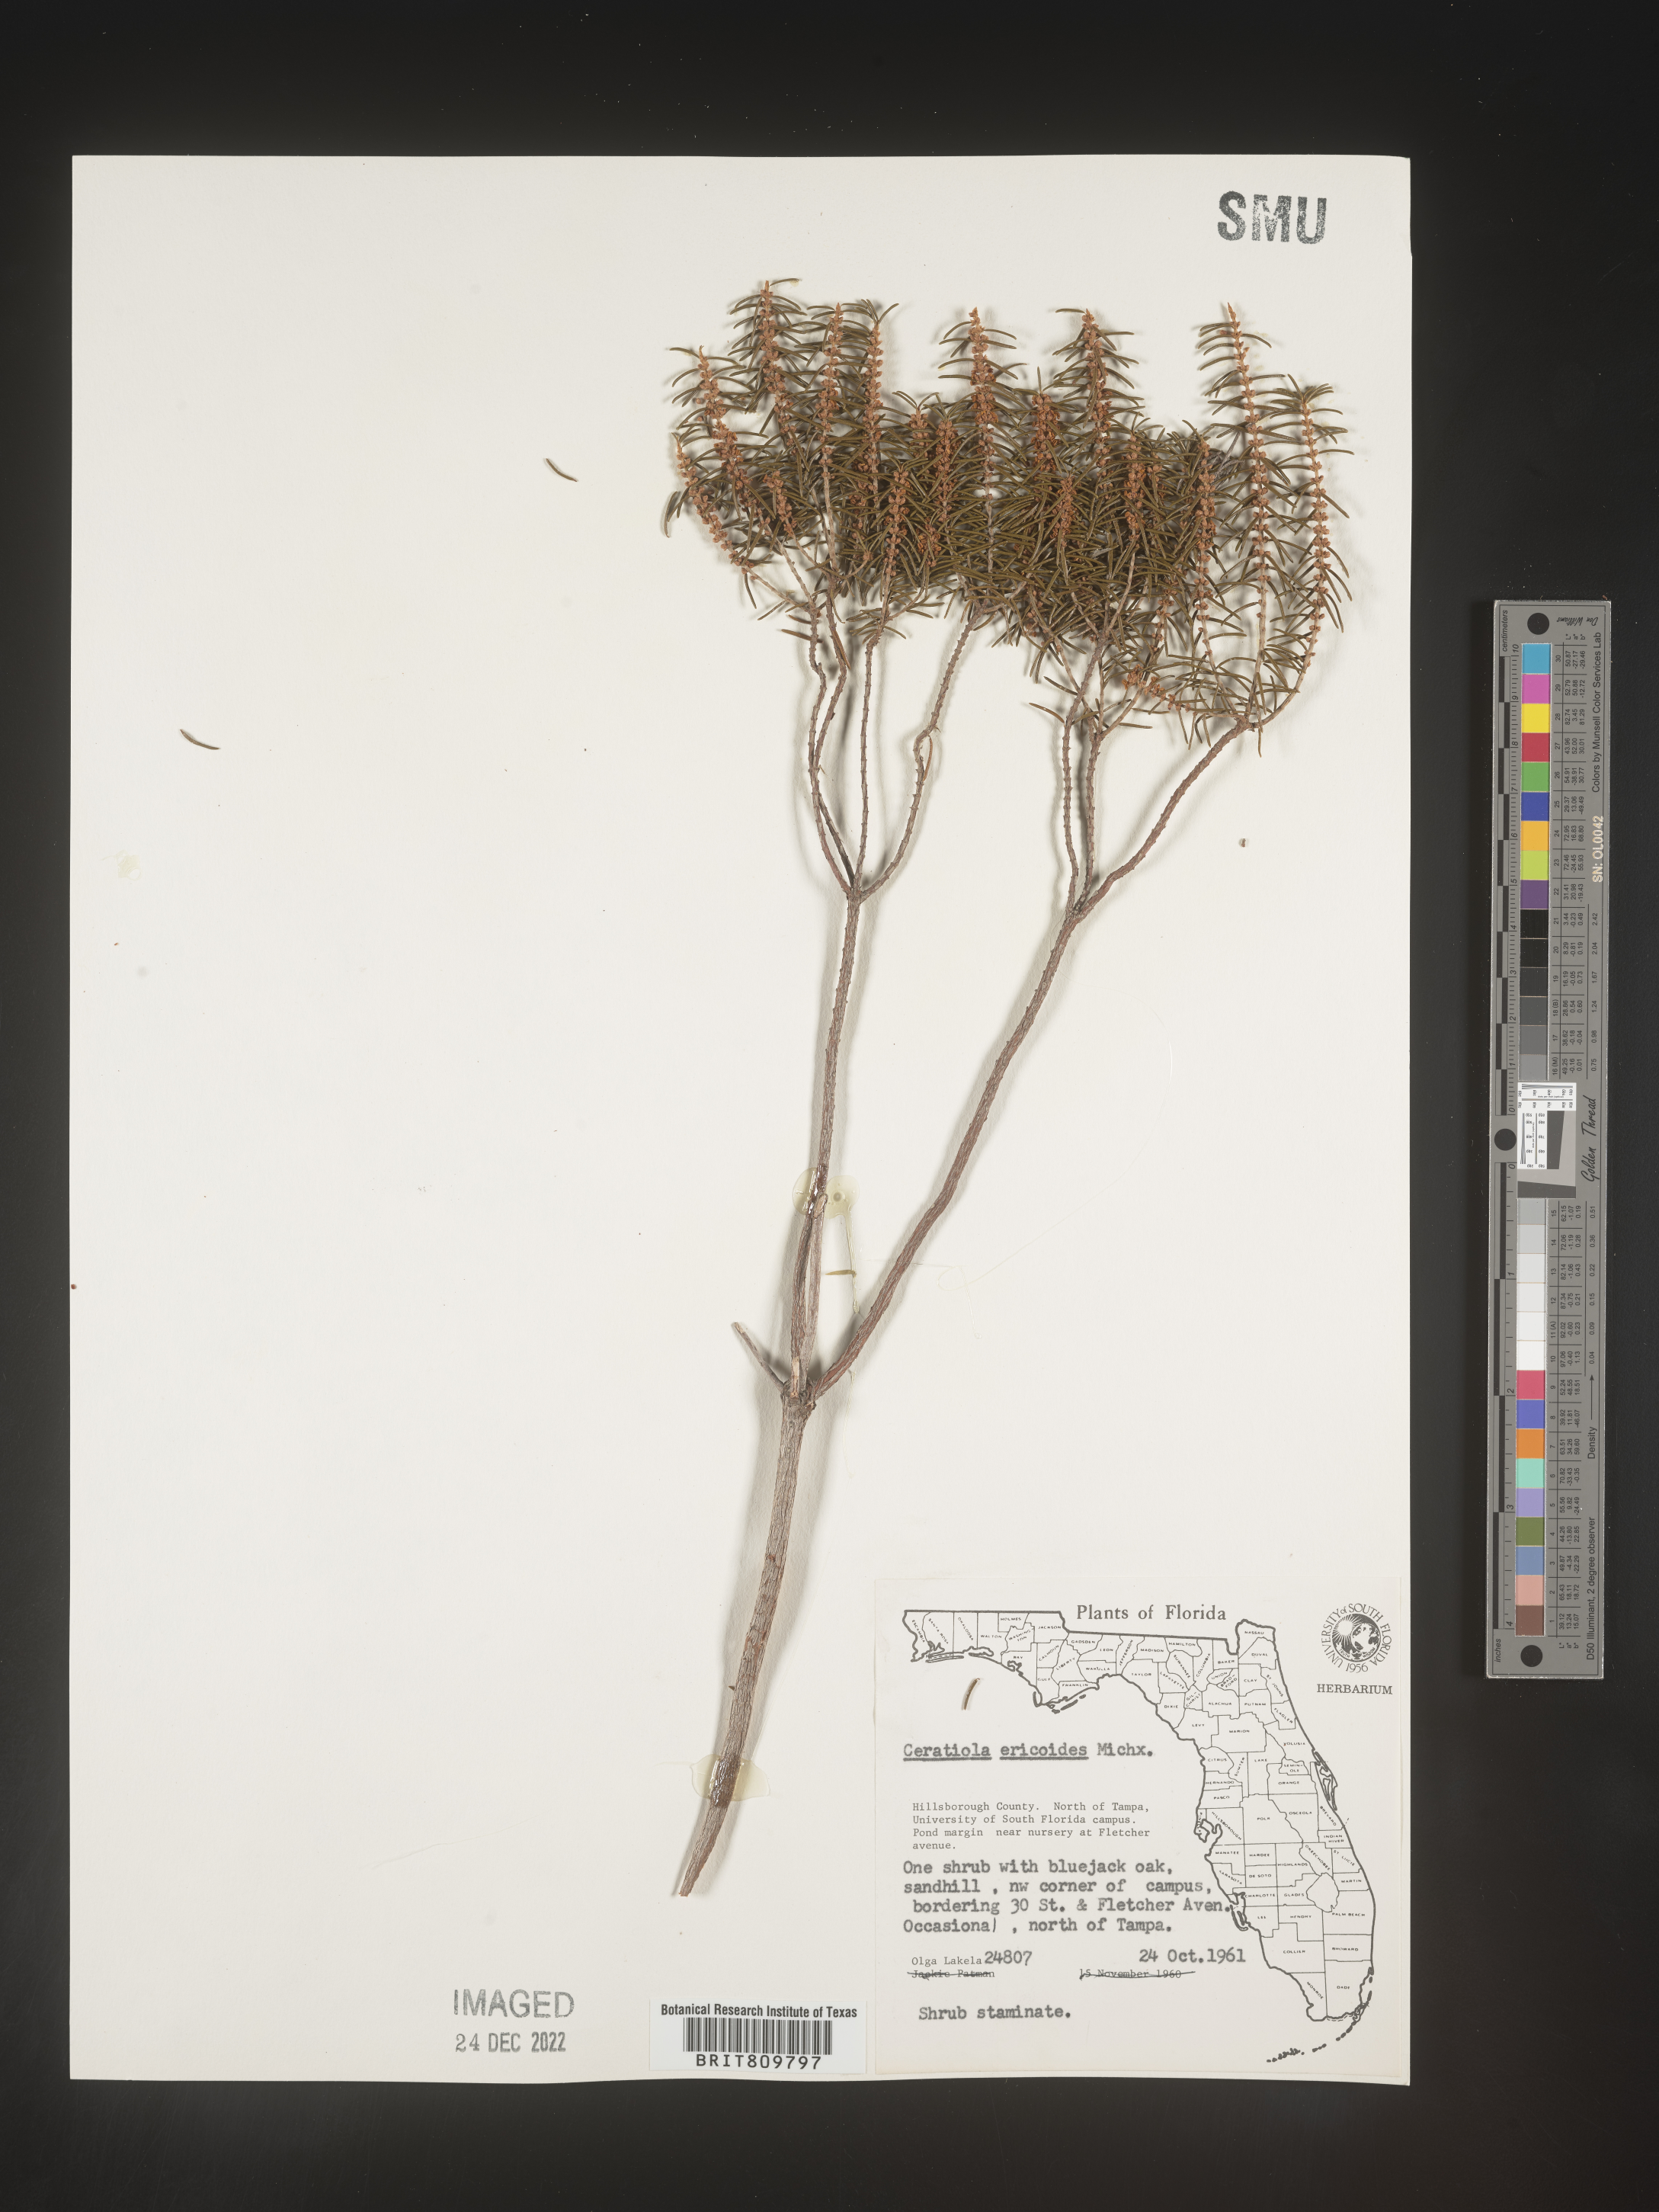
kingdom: Plantae
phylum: Tracheophyta
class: Magnoliopsida
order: Ericales
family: Ericaceae
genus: Ceratiola
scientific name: Ceratiola ericoides
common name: Sandhill-rosemary
